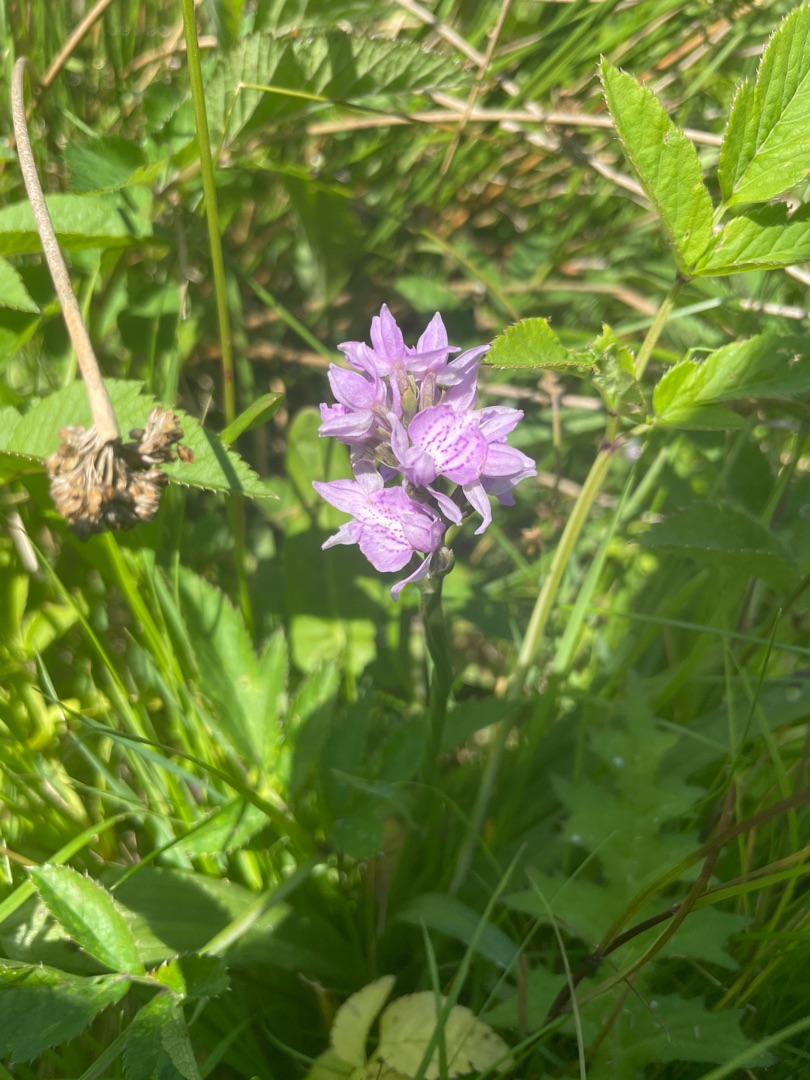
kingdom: Plantae
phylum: Tracheophyta
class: Liliopsida
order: Asparagales
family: Orchidaceae
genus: Dactylorhiza
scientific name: Dactylorhiza maculata
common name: Plettet gøgeurt
